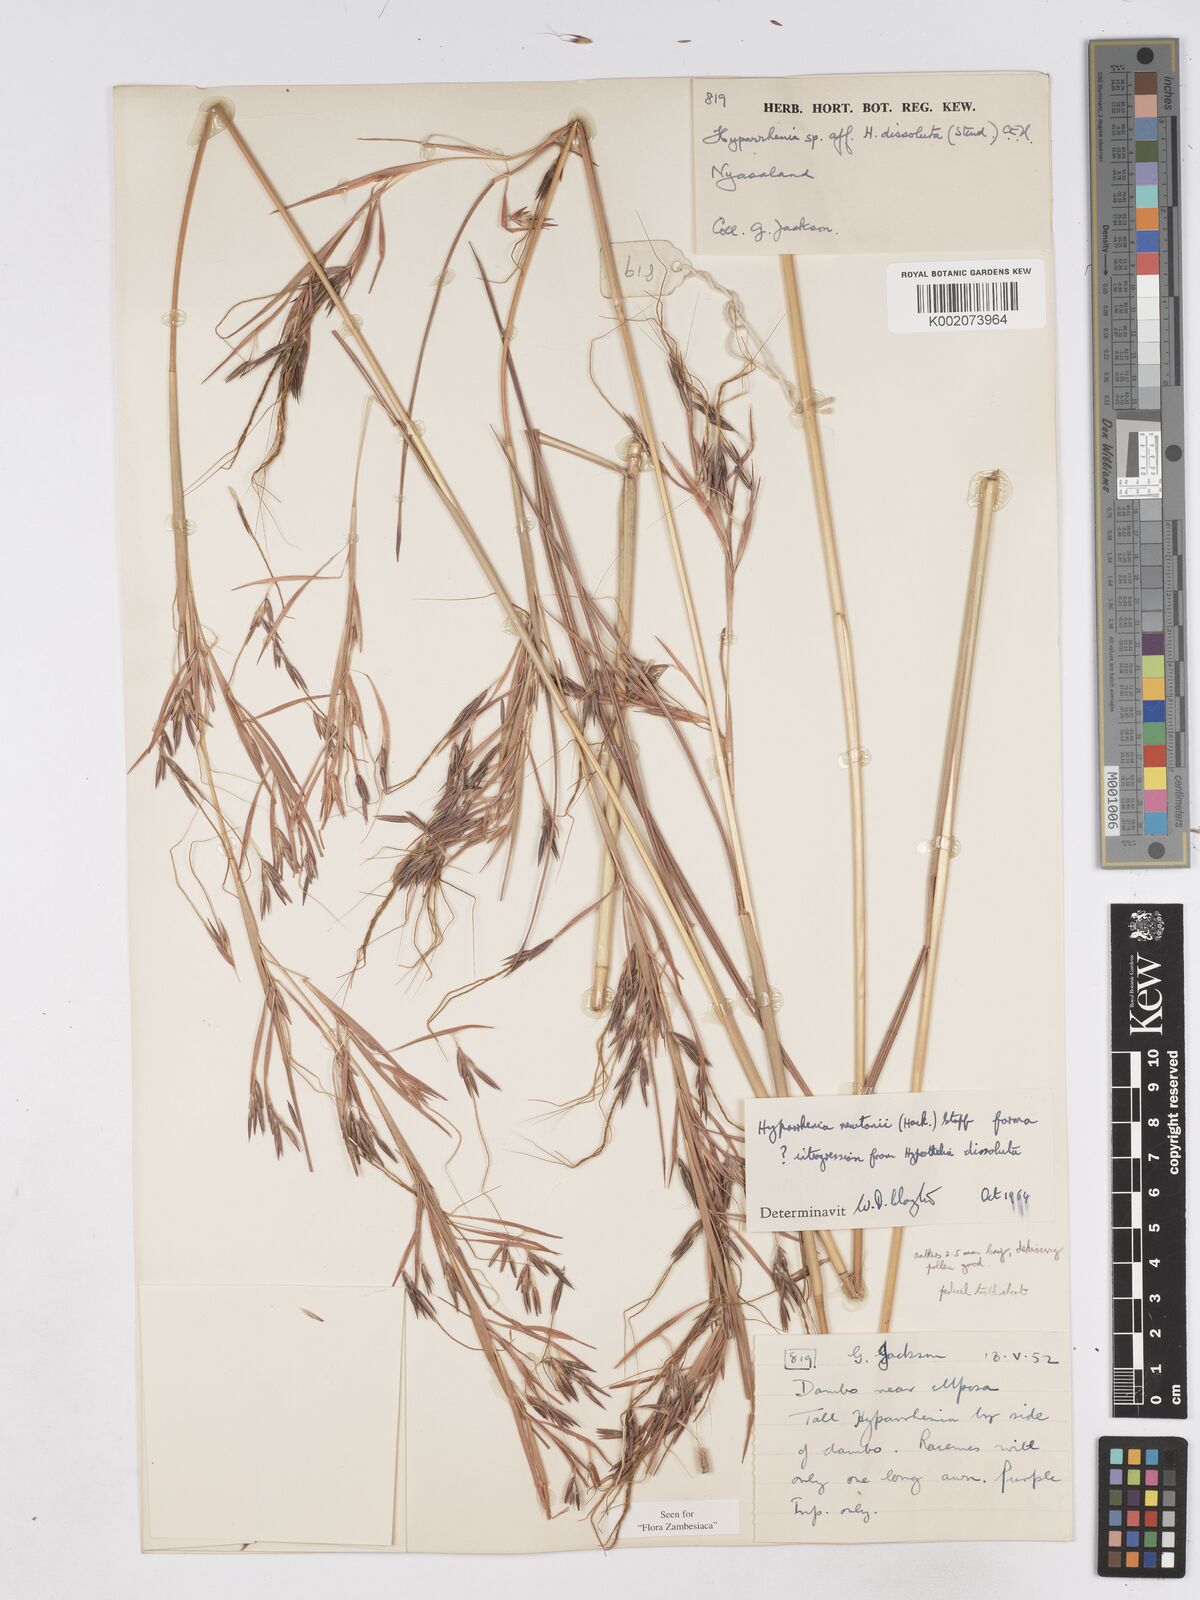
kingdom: Plantae
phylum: Tracheophyta
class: Liliopsida
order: Poales
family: Poaceae
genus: Hyparrhenia
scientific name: Hyparrhenia newtonii
